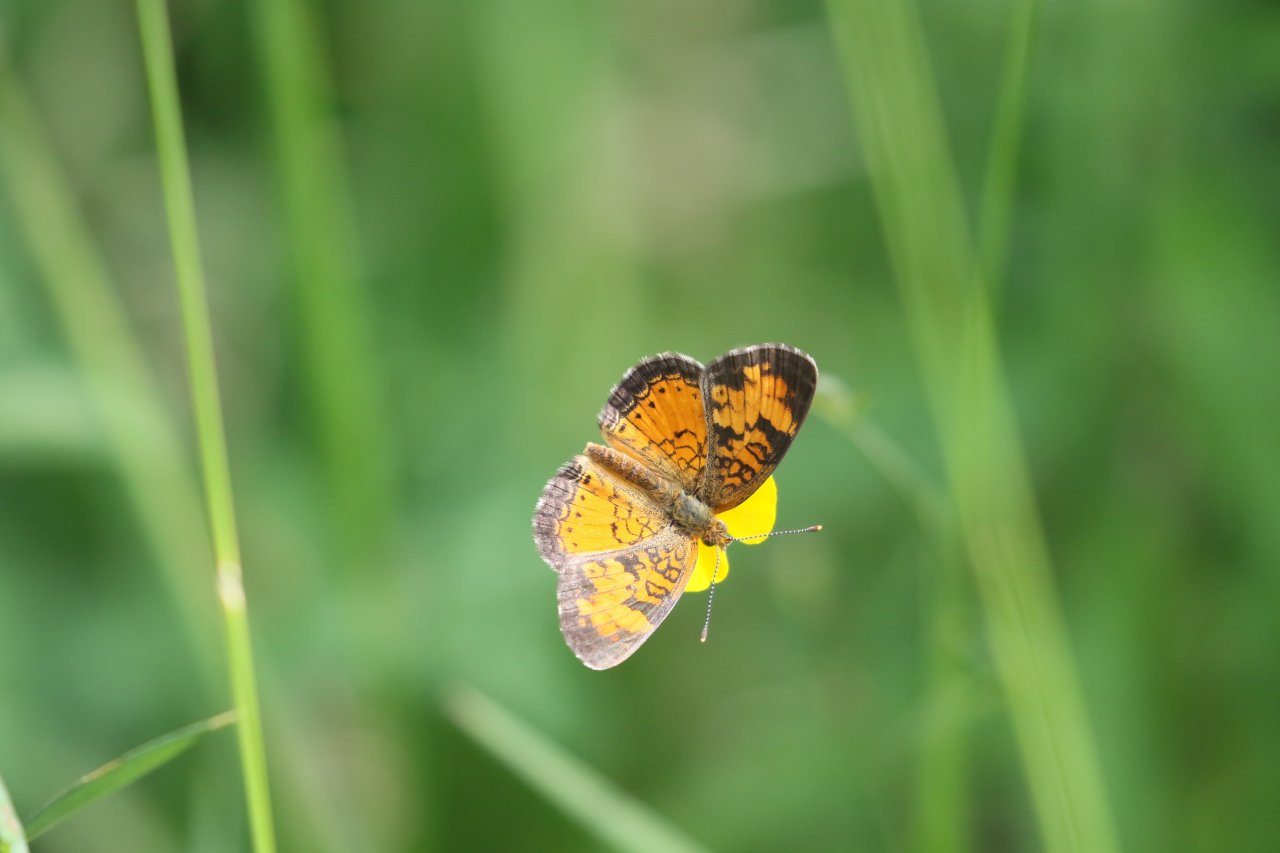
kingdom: Animalia
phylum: Arthropoda
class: Insecta
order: Lepidoptera
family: Nymphalidae
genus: Phyciodes
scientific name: Phyciodes tharos
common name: Northern Crescent
